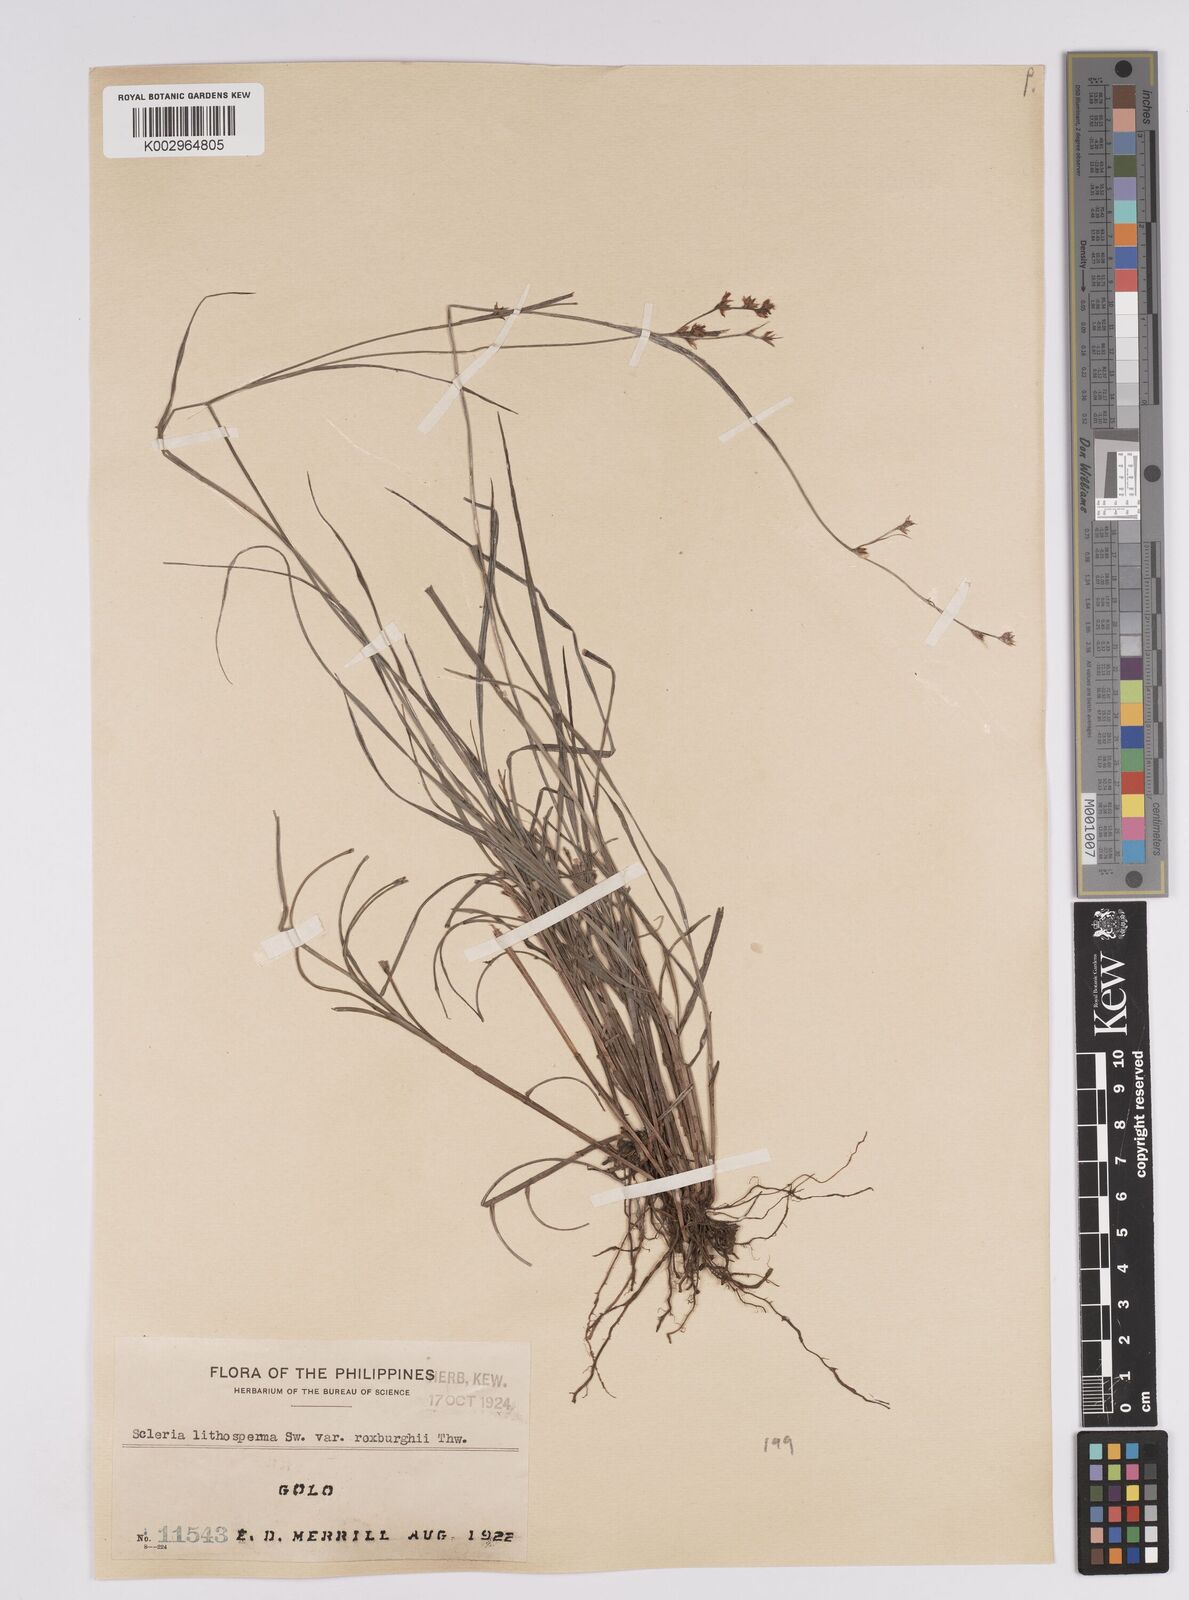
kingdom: Plantae
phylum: Tracheophyta
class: Liliopsida
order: Poales
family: Cyperaceae
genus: Scleria
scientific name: Scleria lithosperma
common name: Florida keys nut-rush
